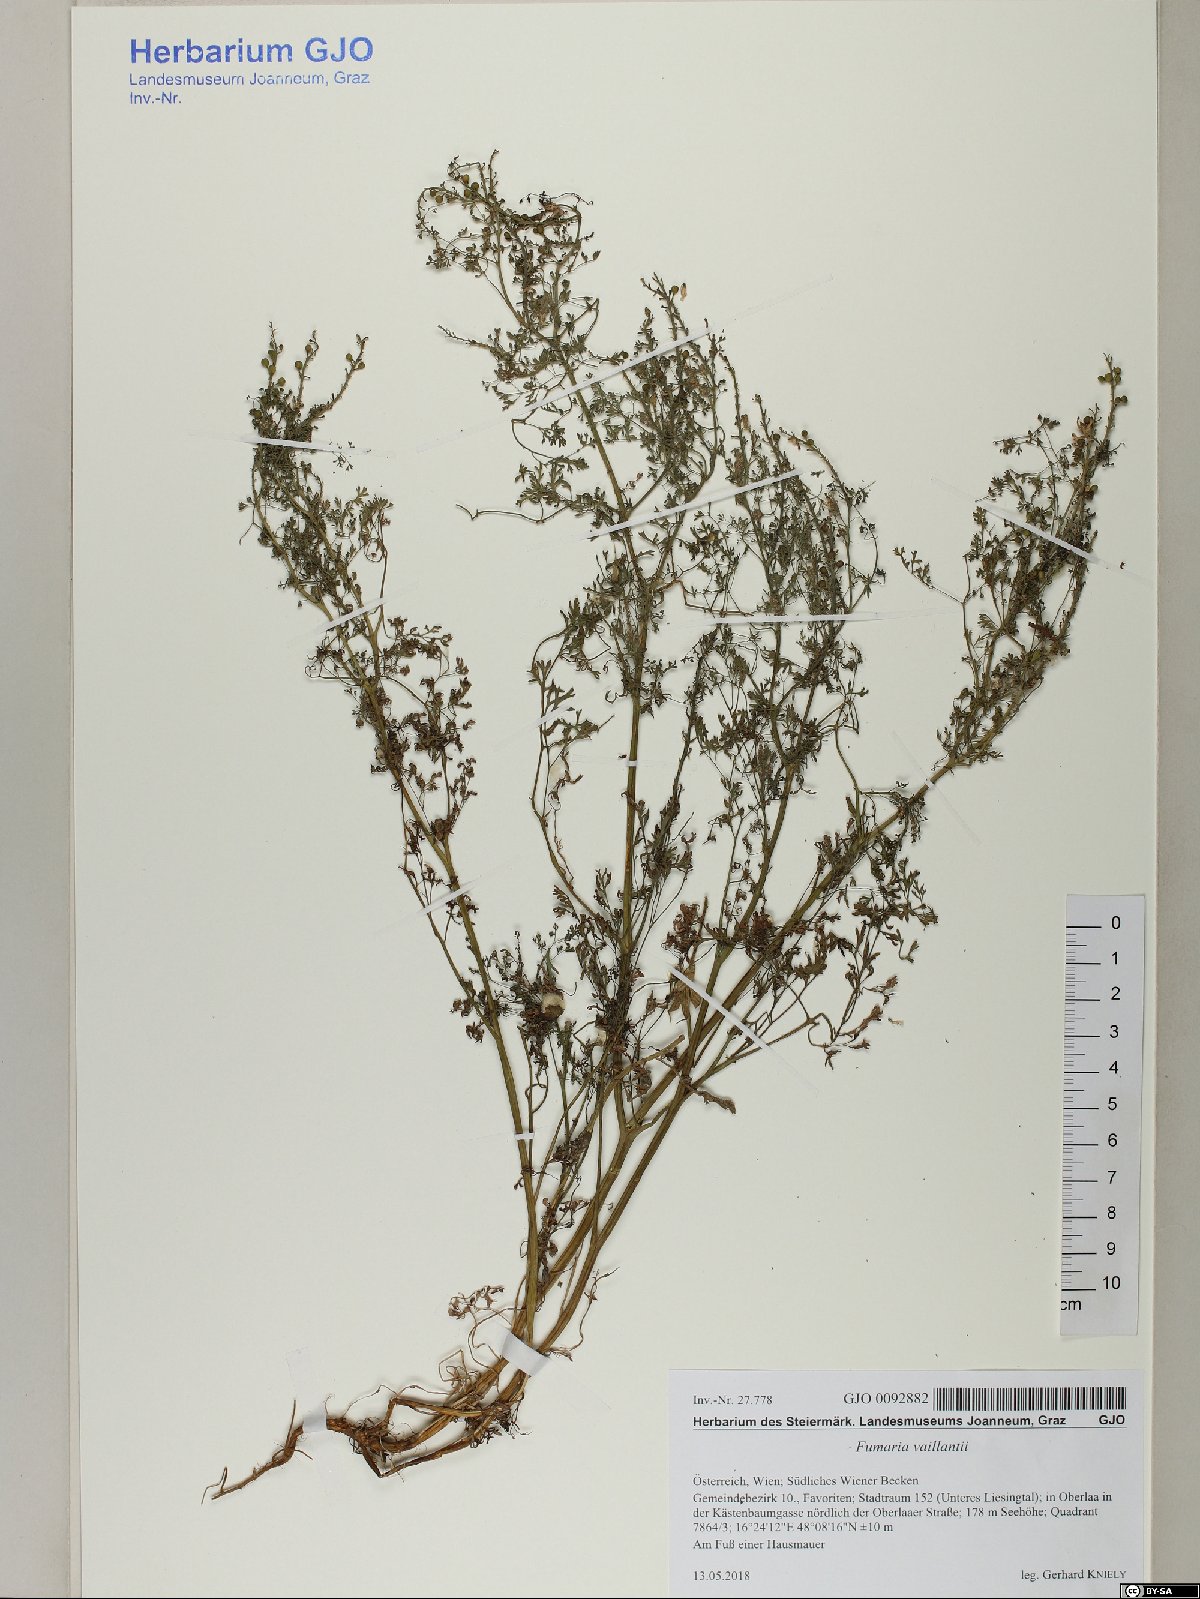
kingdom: Plantae
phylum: Tracheophyta
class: Magnoliopsida
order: Ranunculales
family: Papaveraceae
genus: Fumaria
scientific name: Fumaria vaillantii
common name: Few-flowered fumitory
